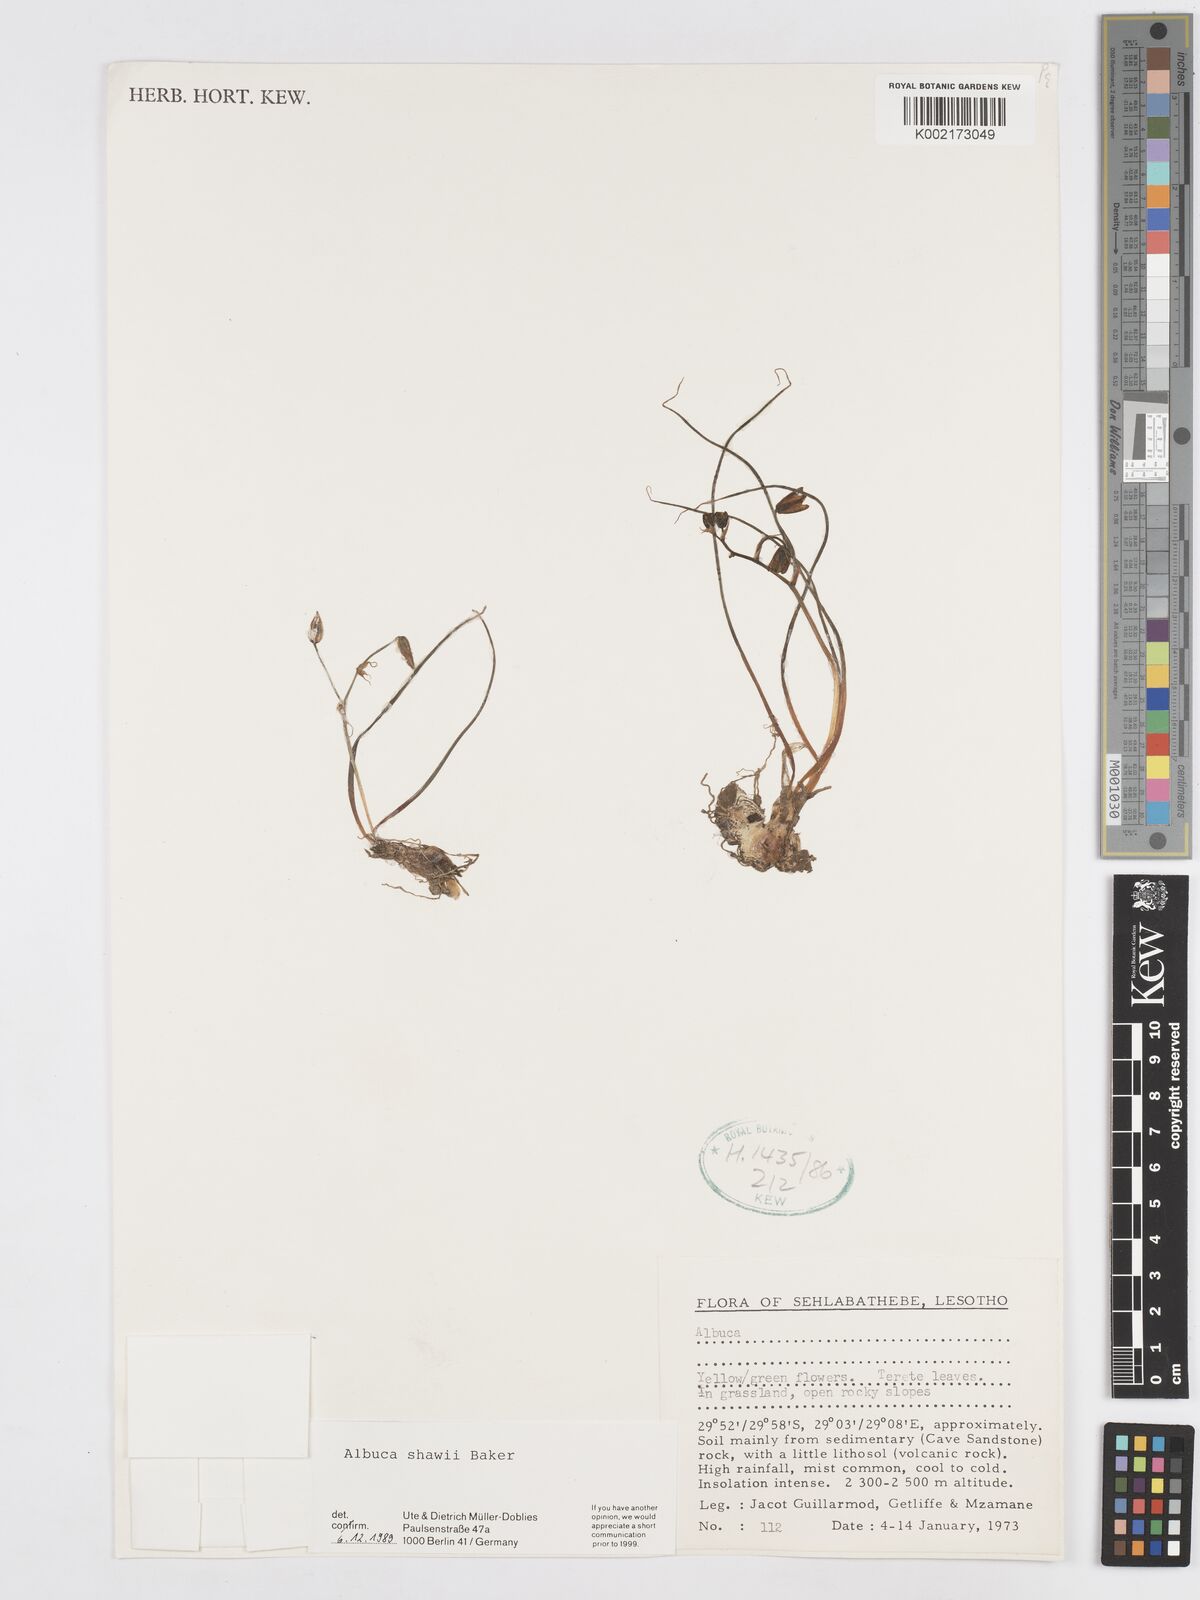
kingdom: Plantae
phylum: Tracheophyta
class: Liliopsida
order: Asparagales
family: Asparagaceae
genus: Albuca
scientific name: Albuca shawii
